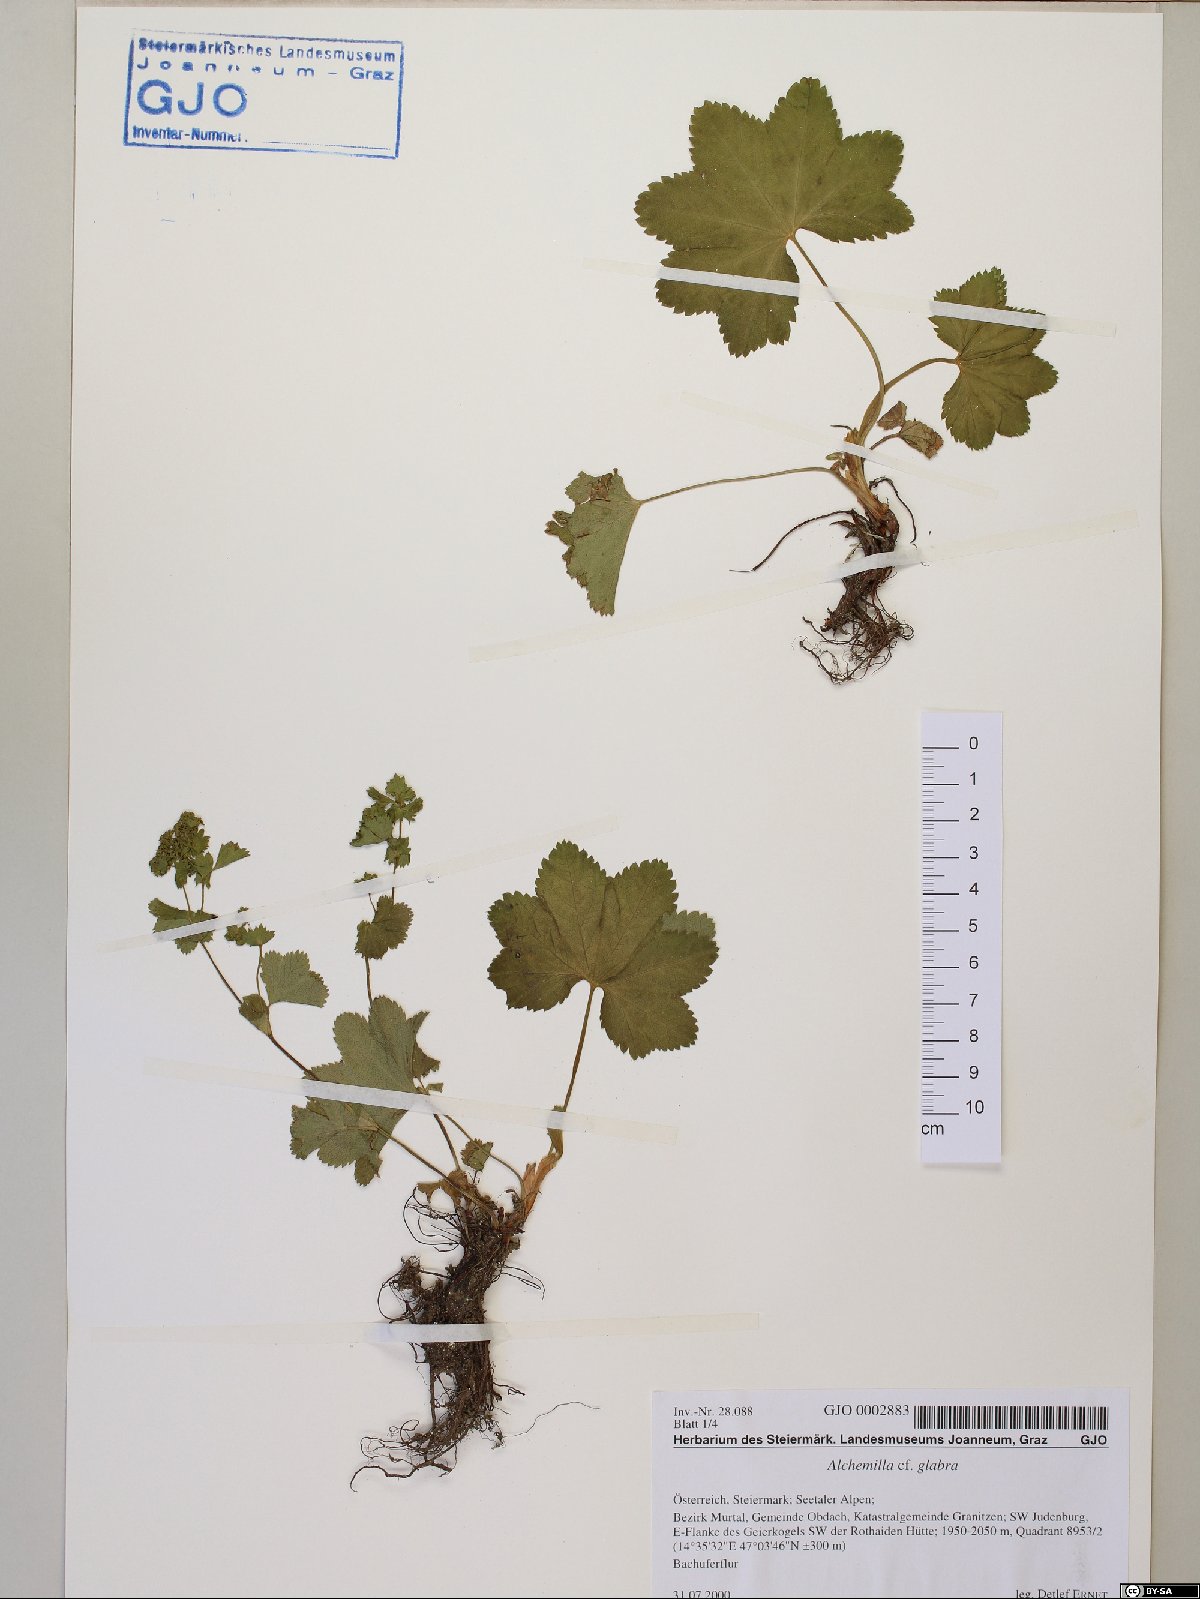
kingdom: Plantae
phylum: Tracheophyta
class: Magnoliopsida
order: Rosales
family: Rosaceae
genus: Alchemilla
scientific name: Alchemilla glabra
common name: Smooth lady's-mantle
